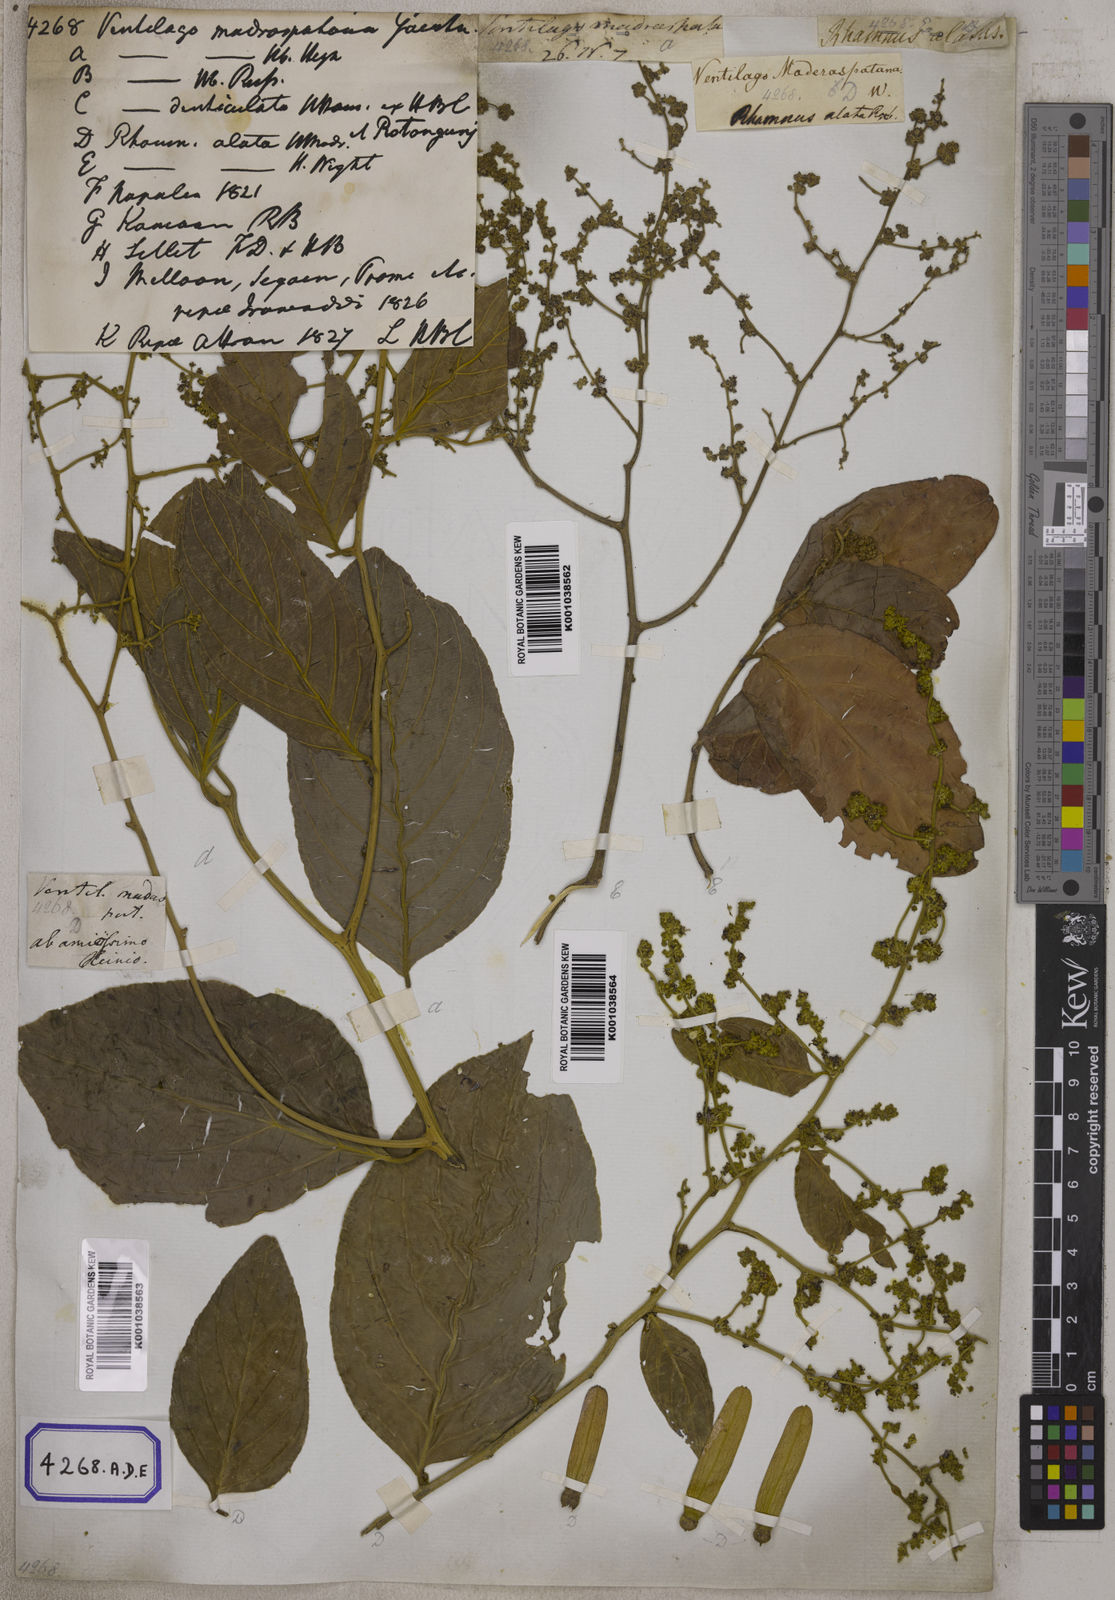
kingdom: Plantae
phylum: Tracheophyta
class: Magnoliopsida
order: Rosales
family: Rhamnaceae
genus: Ventilago
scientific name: Ventilago madraspatana
